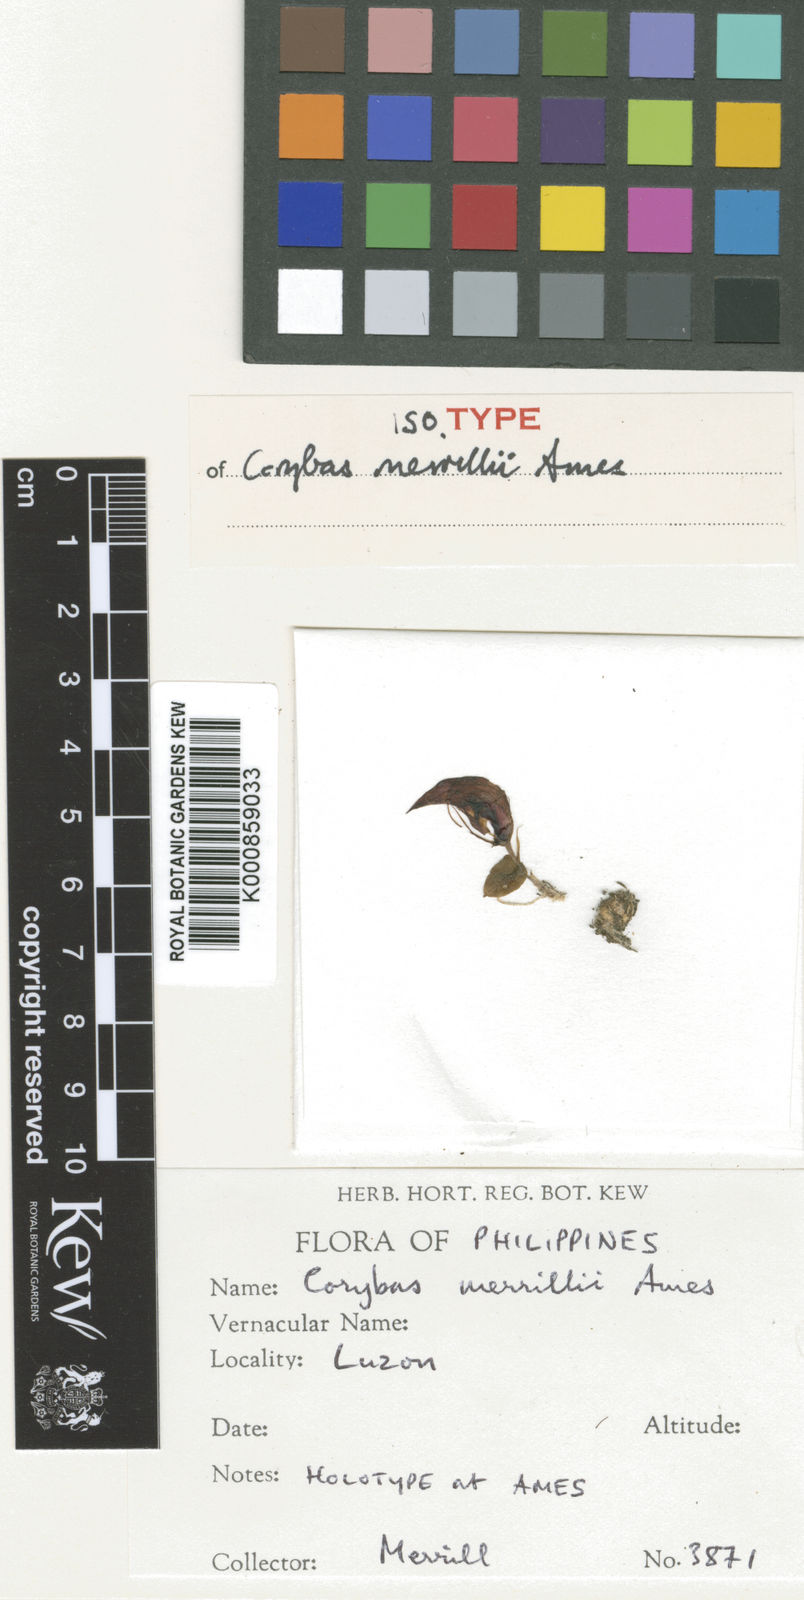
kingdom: Plantae
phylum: Tracheophyta
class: Liliopsida
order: Asparagales
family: Orchidaceae
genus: Corybas
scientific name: Corybas merrillii
